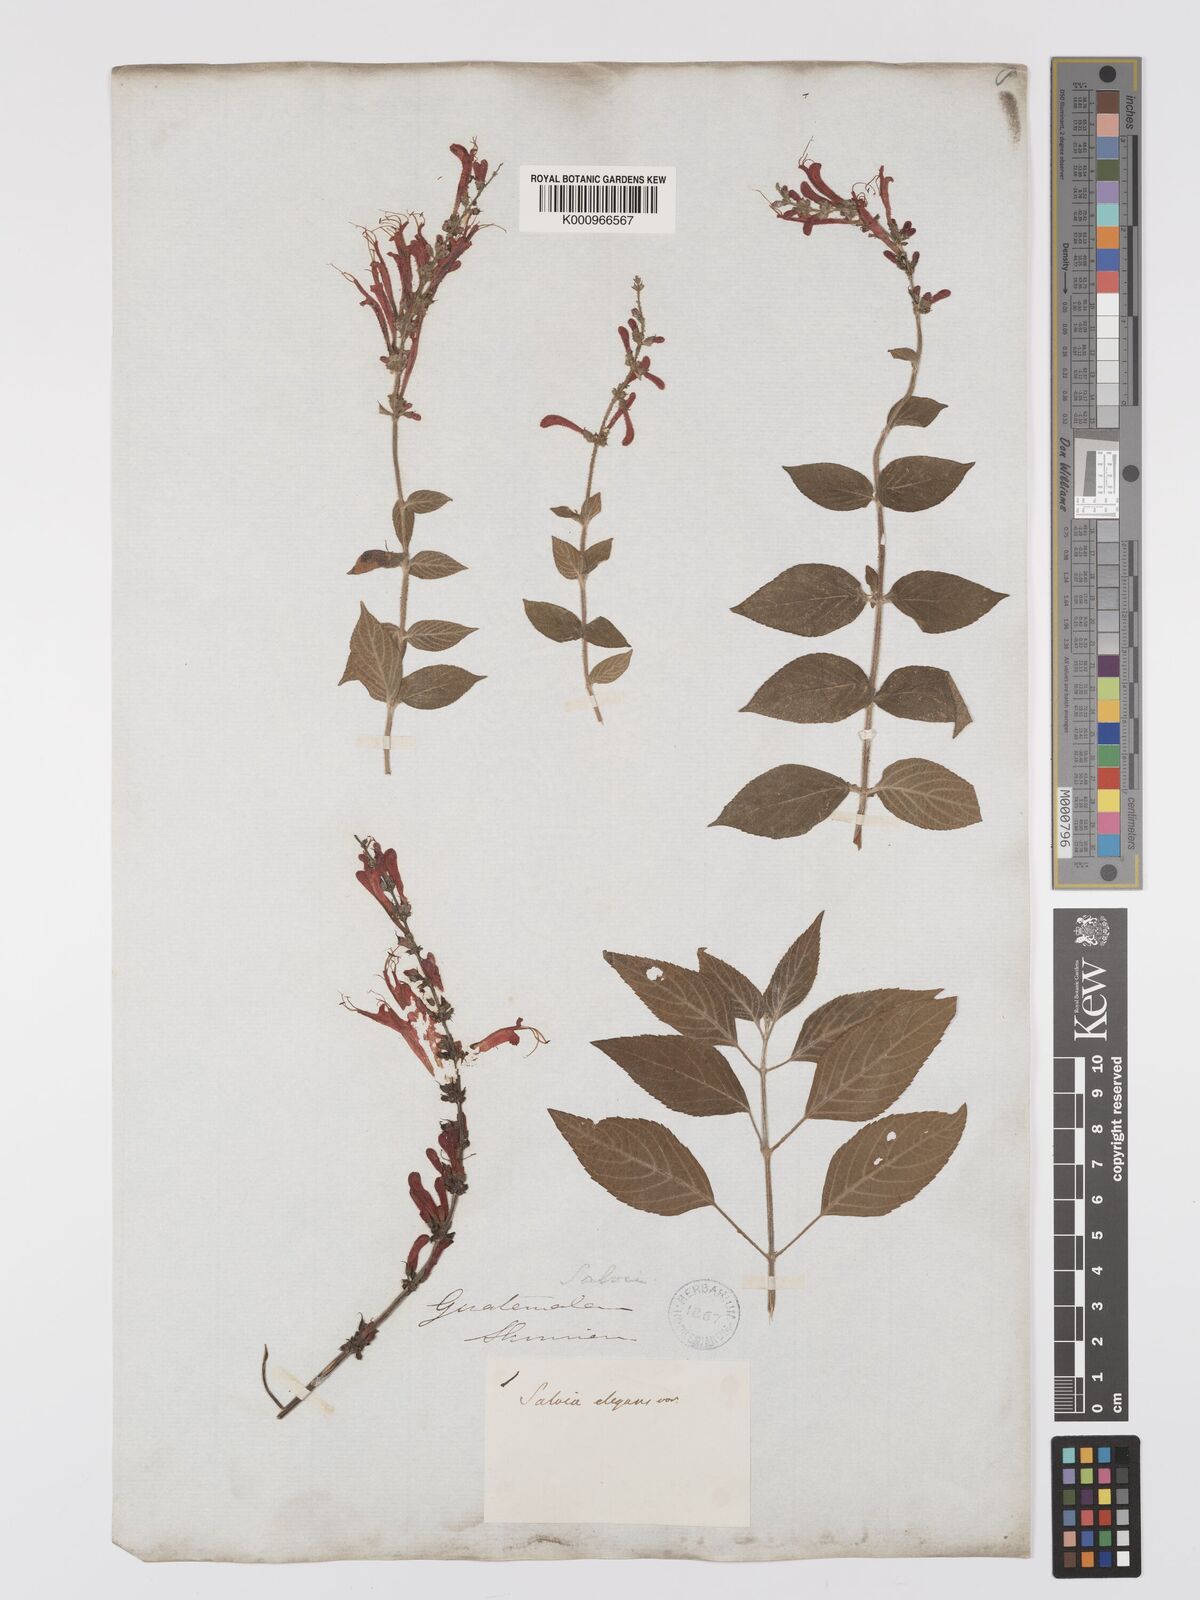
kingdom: Plantae
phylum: Tracheophyta
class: Magnoliopsida
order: Lamiales
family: Lamiaceae
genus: Salvia
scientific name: Salvia cinnabarina
